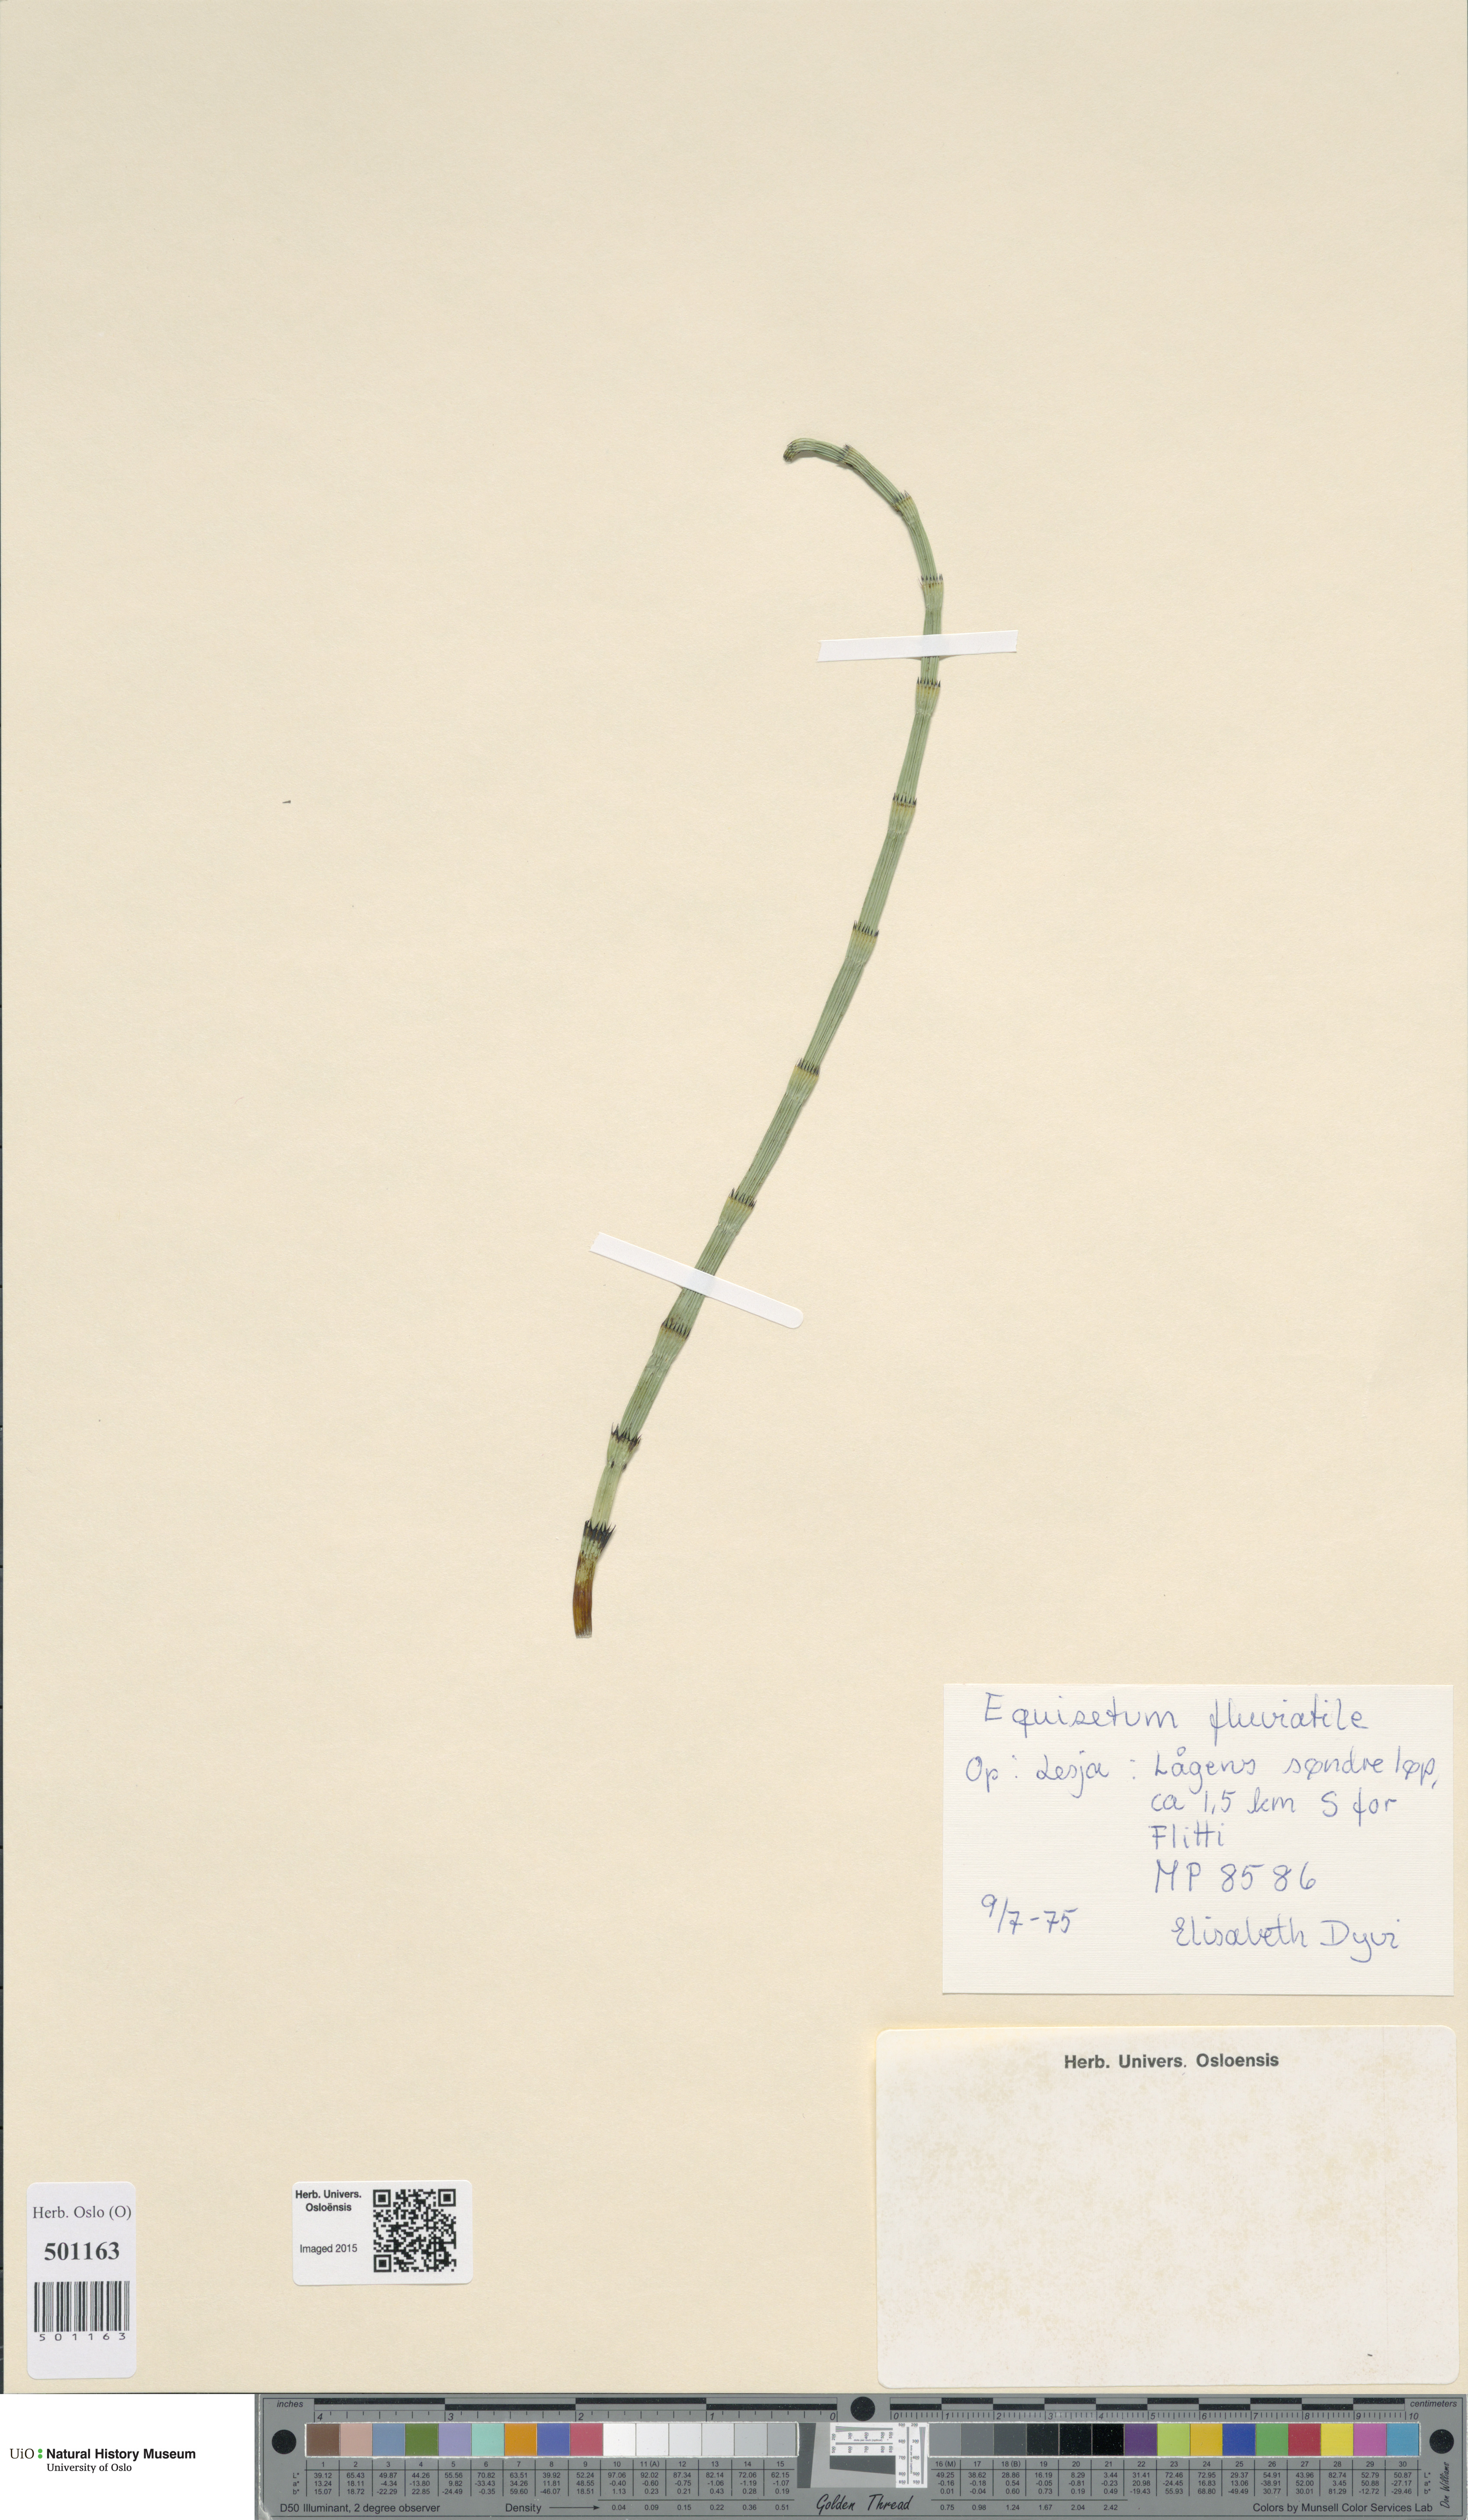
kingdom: Plantae
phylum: Tracheophyta
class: Polypodiopsida
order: Equisetales
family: Equisetaceae
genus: Equisetum
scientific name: Equisetum fluviatile
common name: Water horsetail
